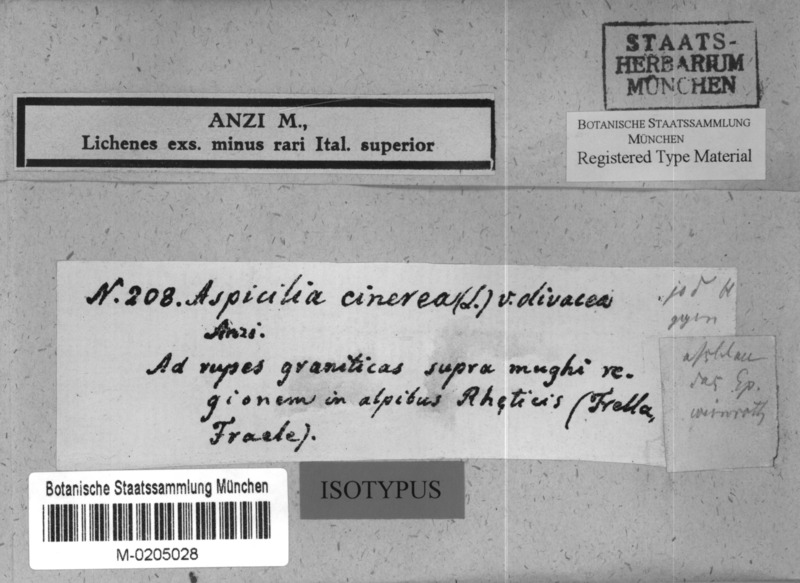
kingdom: Fungi
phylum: Ascomycota
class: Lecanoromycetes
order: Pertusariales
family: Megasporaceae
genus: Aspicilia
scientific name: Aspicilia
